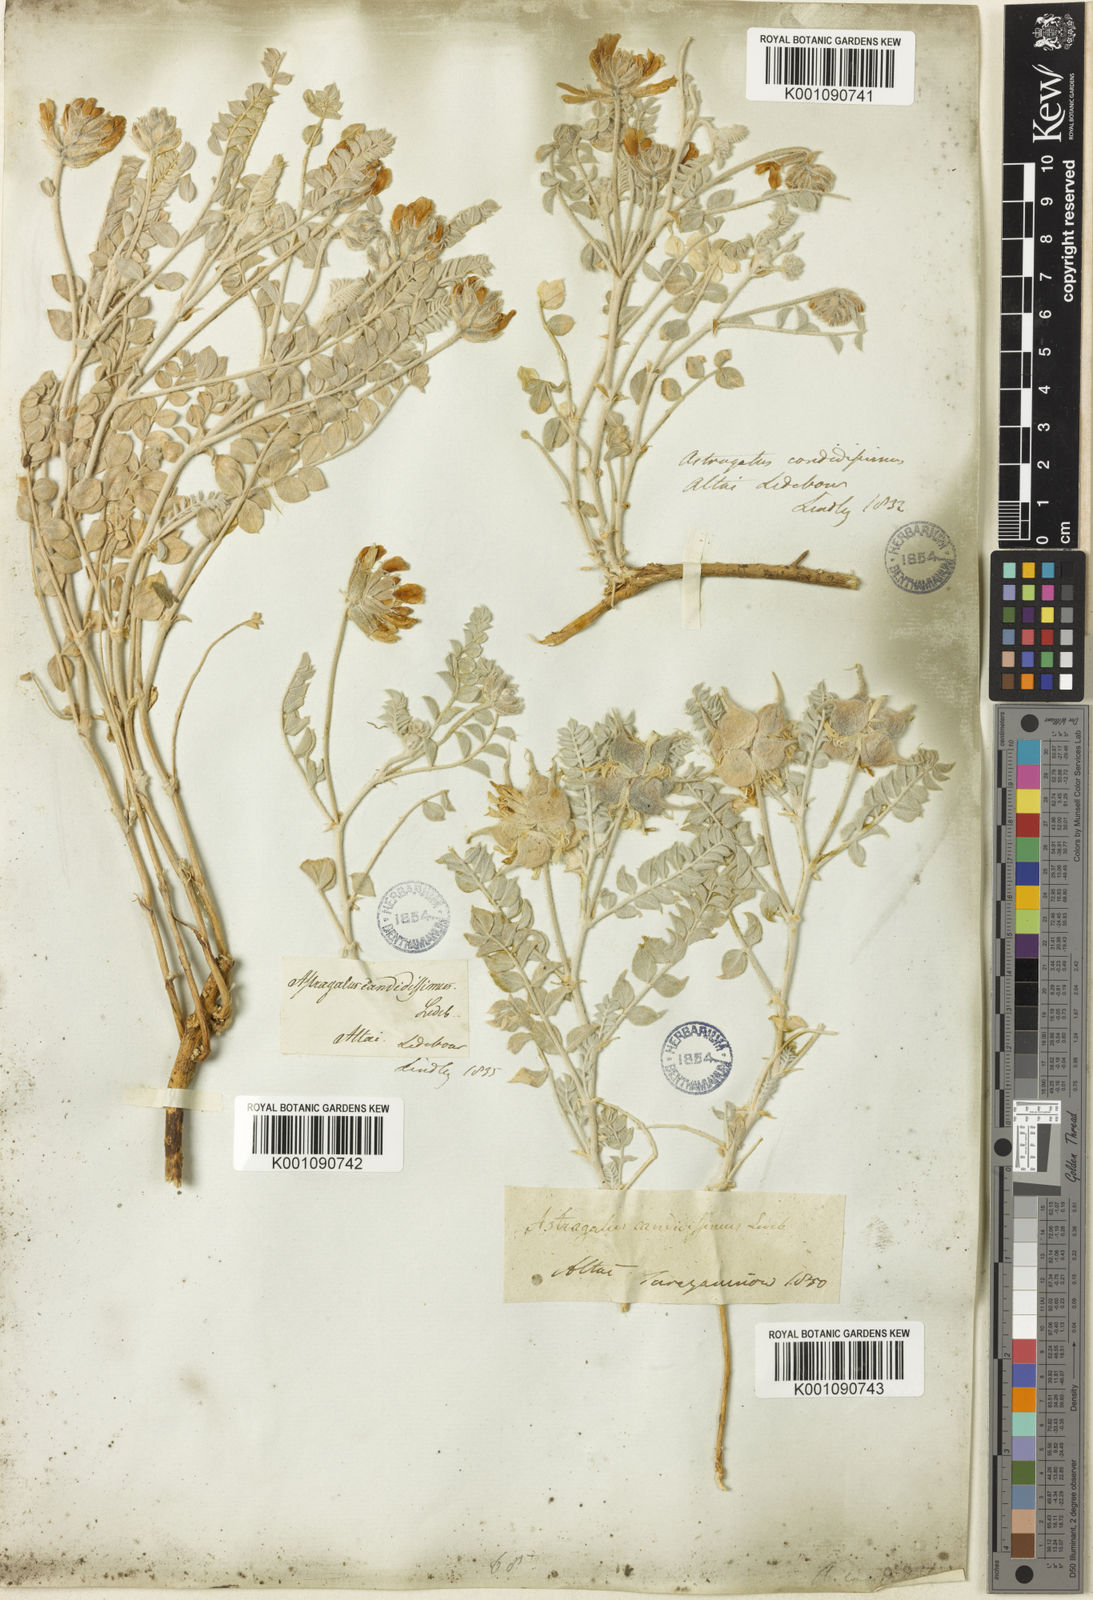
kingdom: Plantae
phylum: Tracheophyta
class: Magnoliopsida
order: Fabales
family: Fabaceae
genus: Astragalus
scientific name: Astragalus
